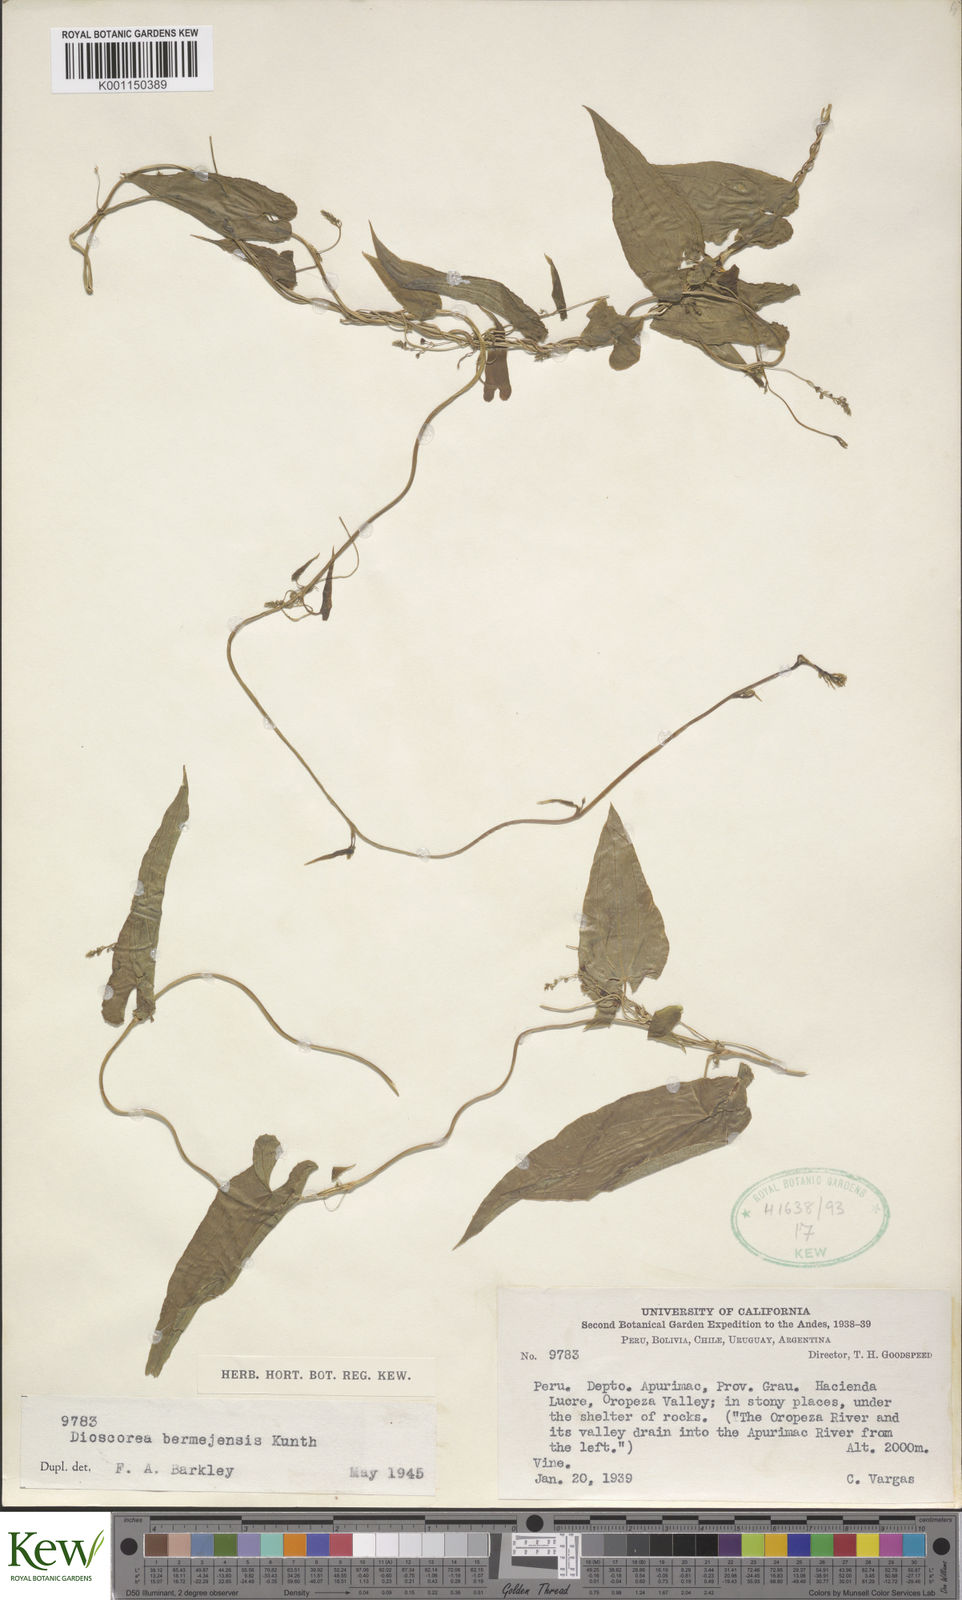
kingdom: Plantae
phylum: Tracheophyta
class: Liliopsida
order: Dioscoreales
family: Dioscoreaceae
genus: Dioscorea
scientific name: Dioscorea bermejensis
